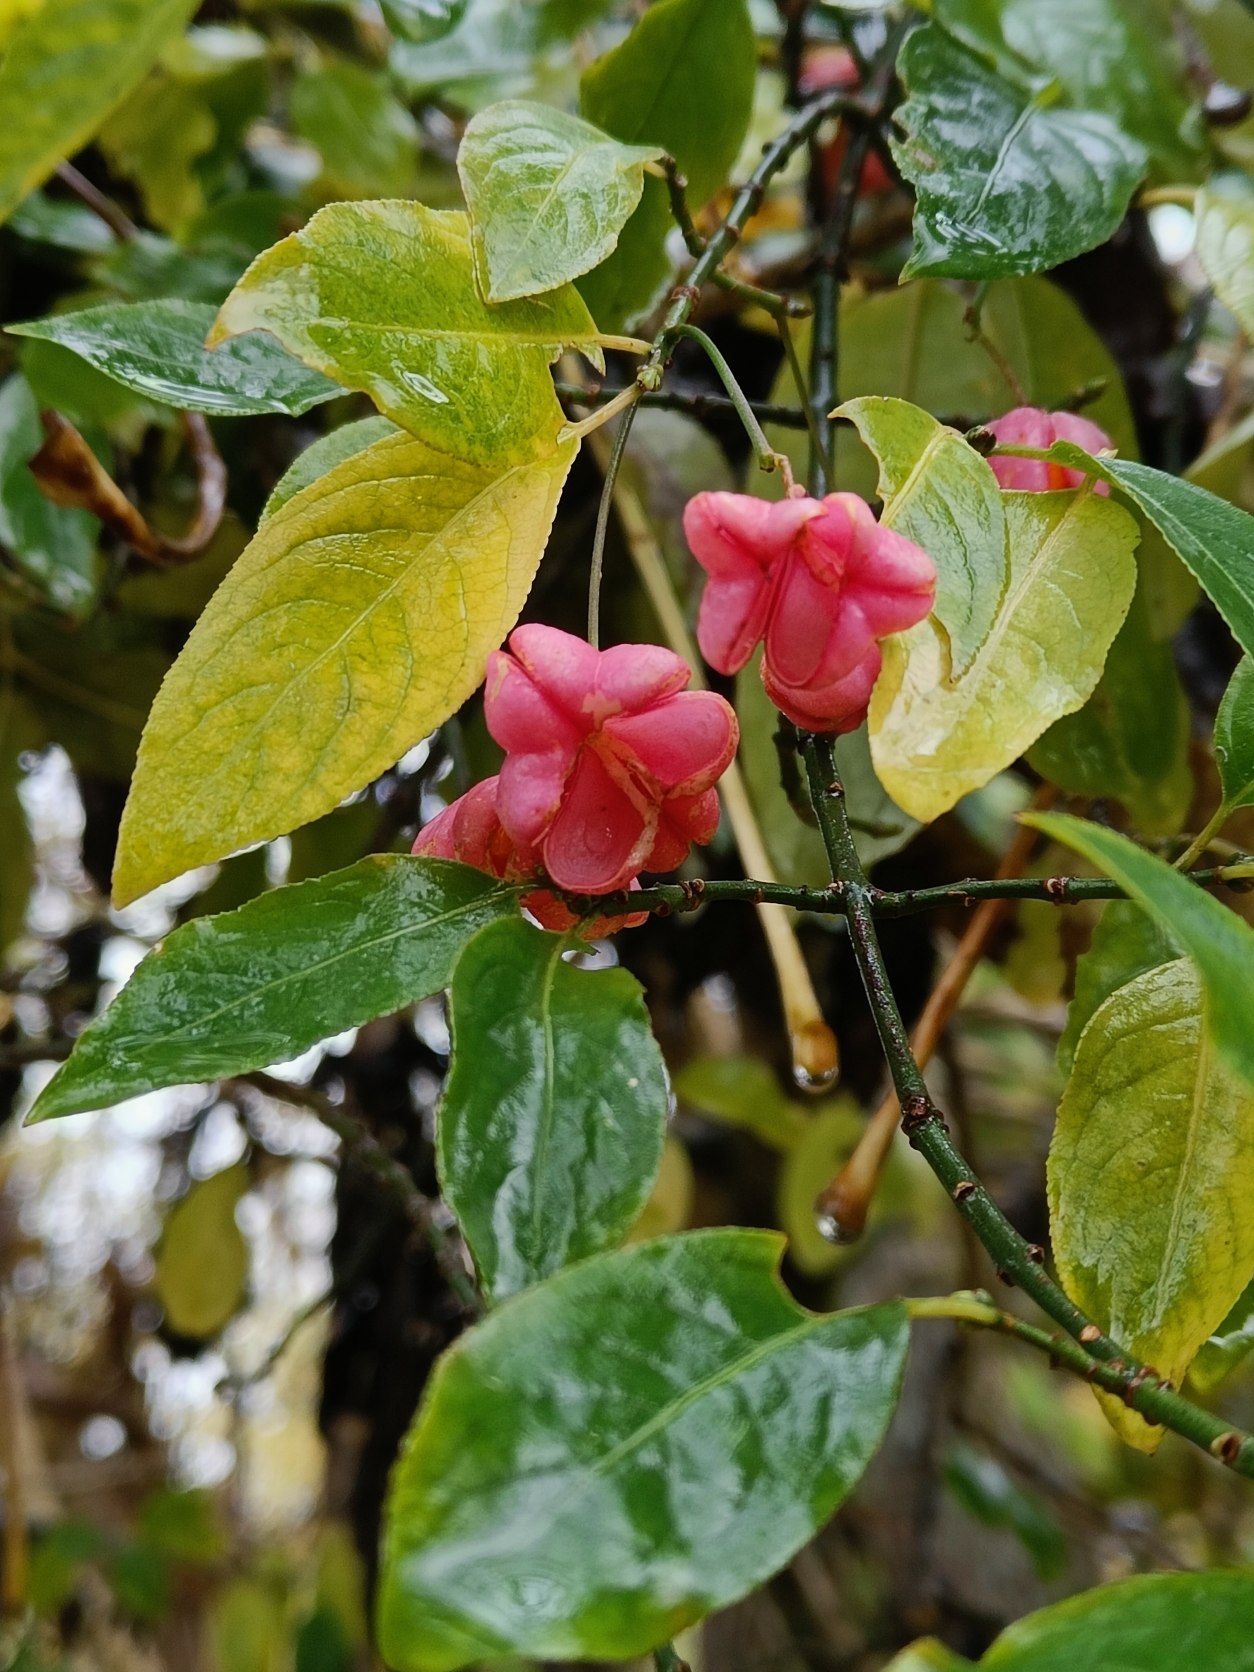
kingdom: Plantae
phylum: Tracheophyta
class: Magnoliopsida
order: Celastrales
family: Celastraceae
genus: Euonymus
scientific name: Euonymus europaeus
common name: Benved
